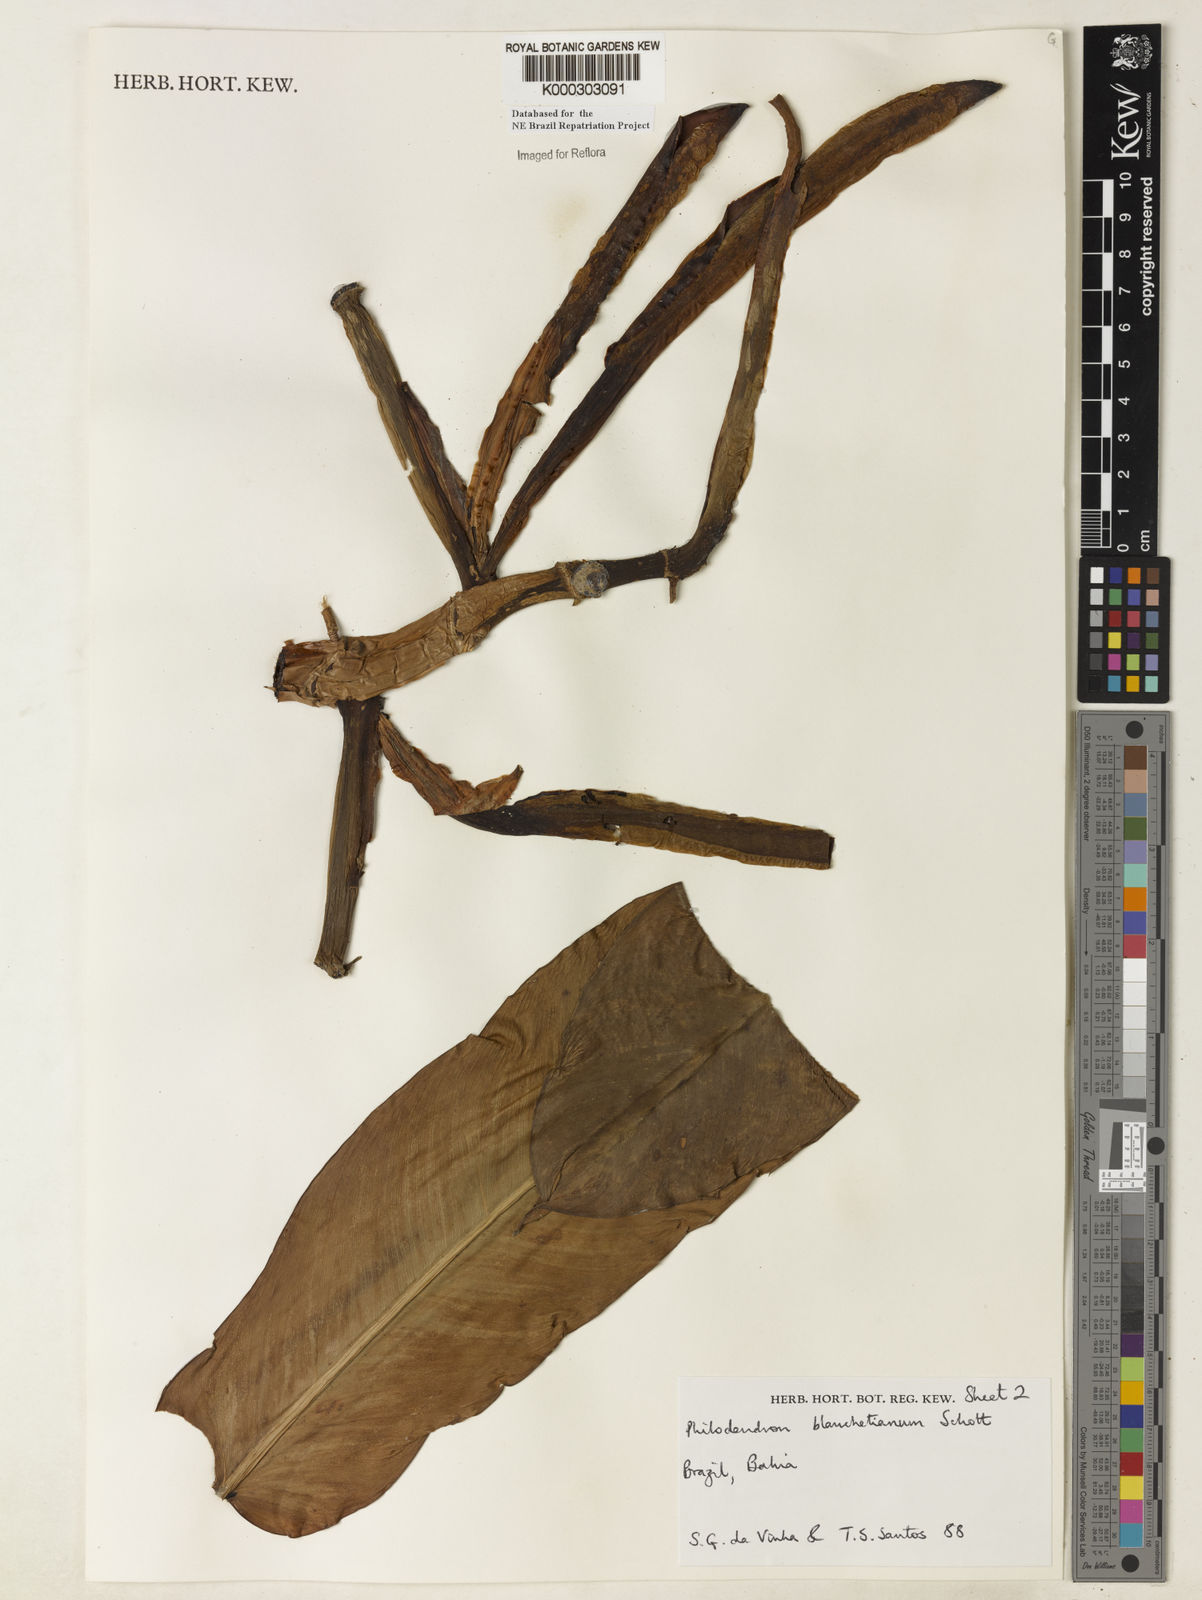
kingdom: Plantae
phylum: Tracheophyta
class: Liliopsida
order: Alismatales
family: Araceae
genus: Philodendron
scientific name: Philodendron blanchetianum
